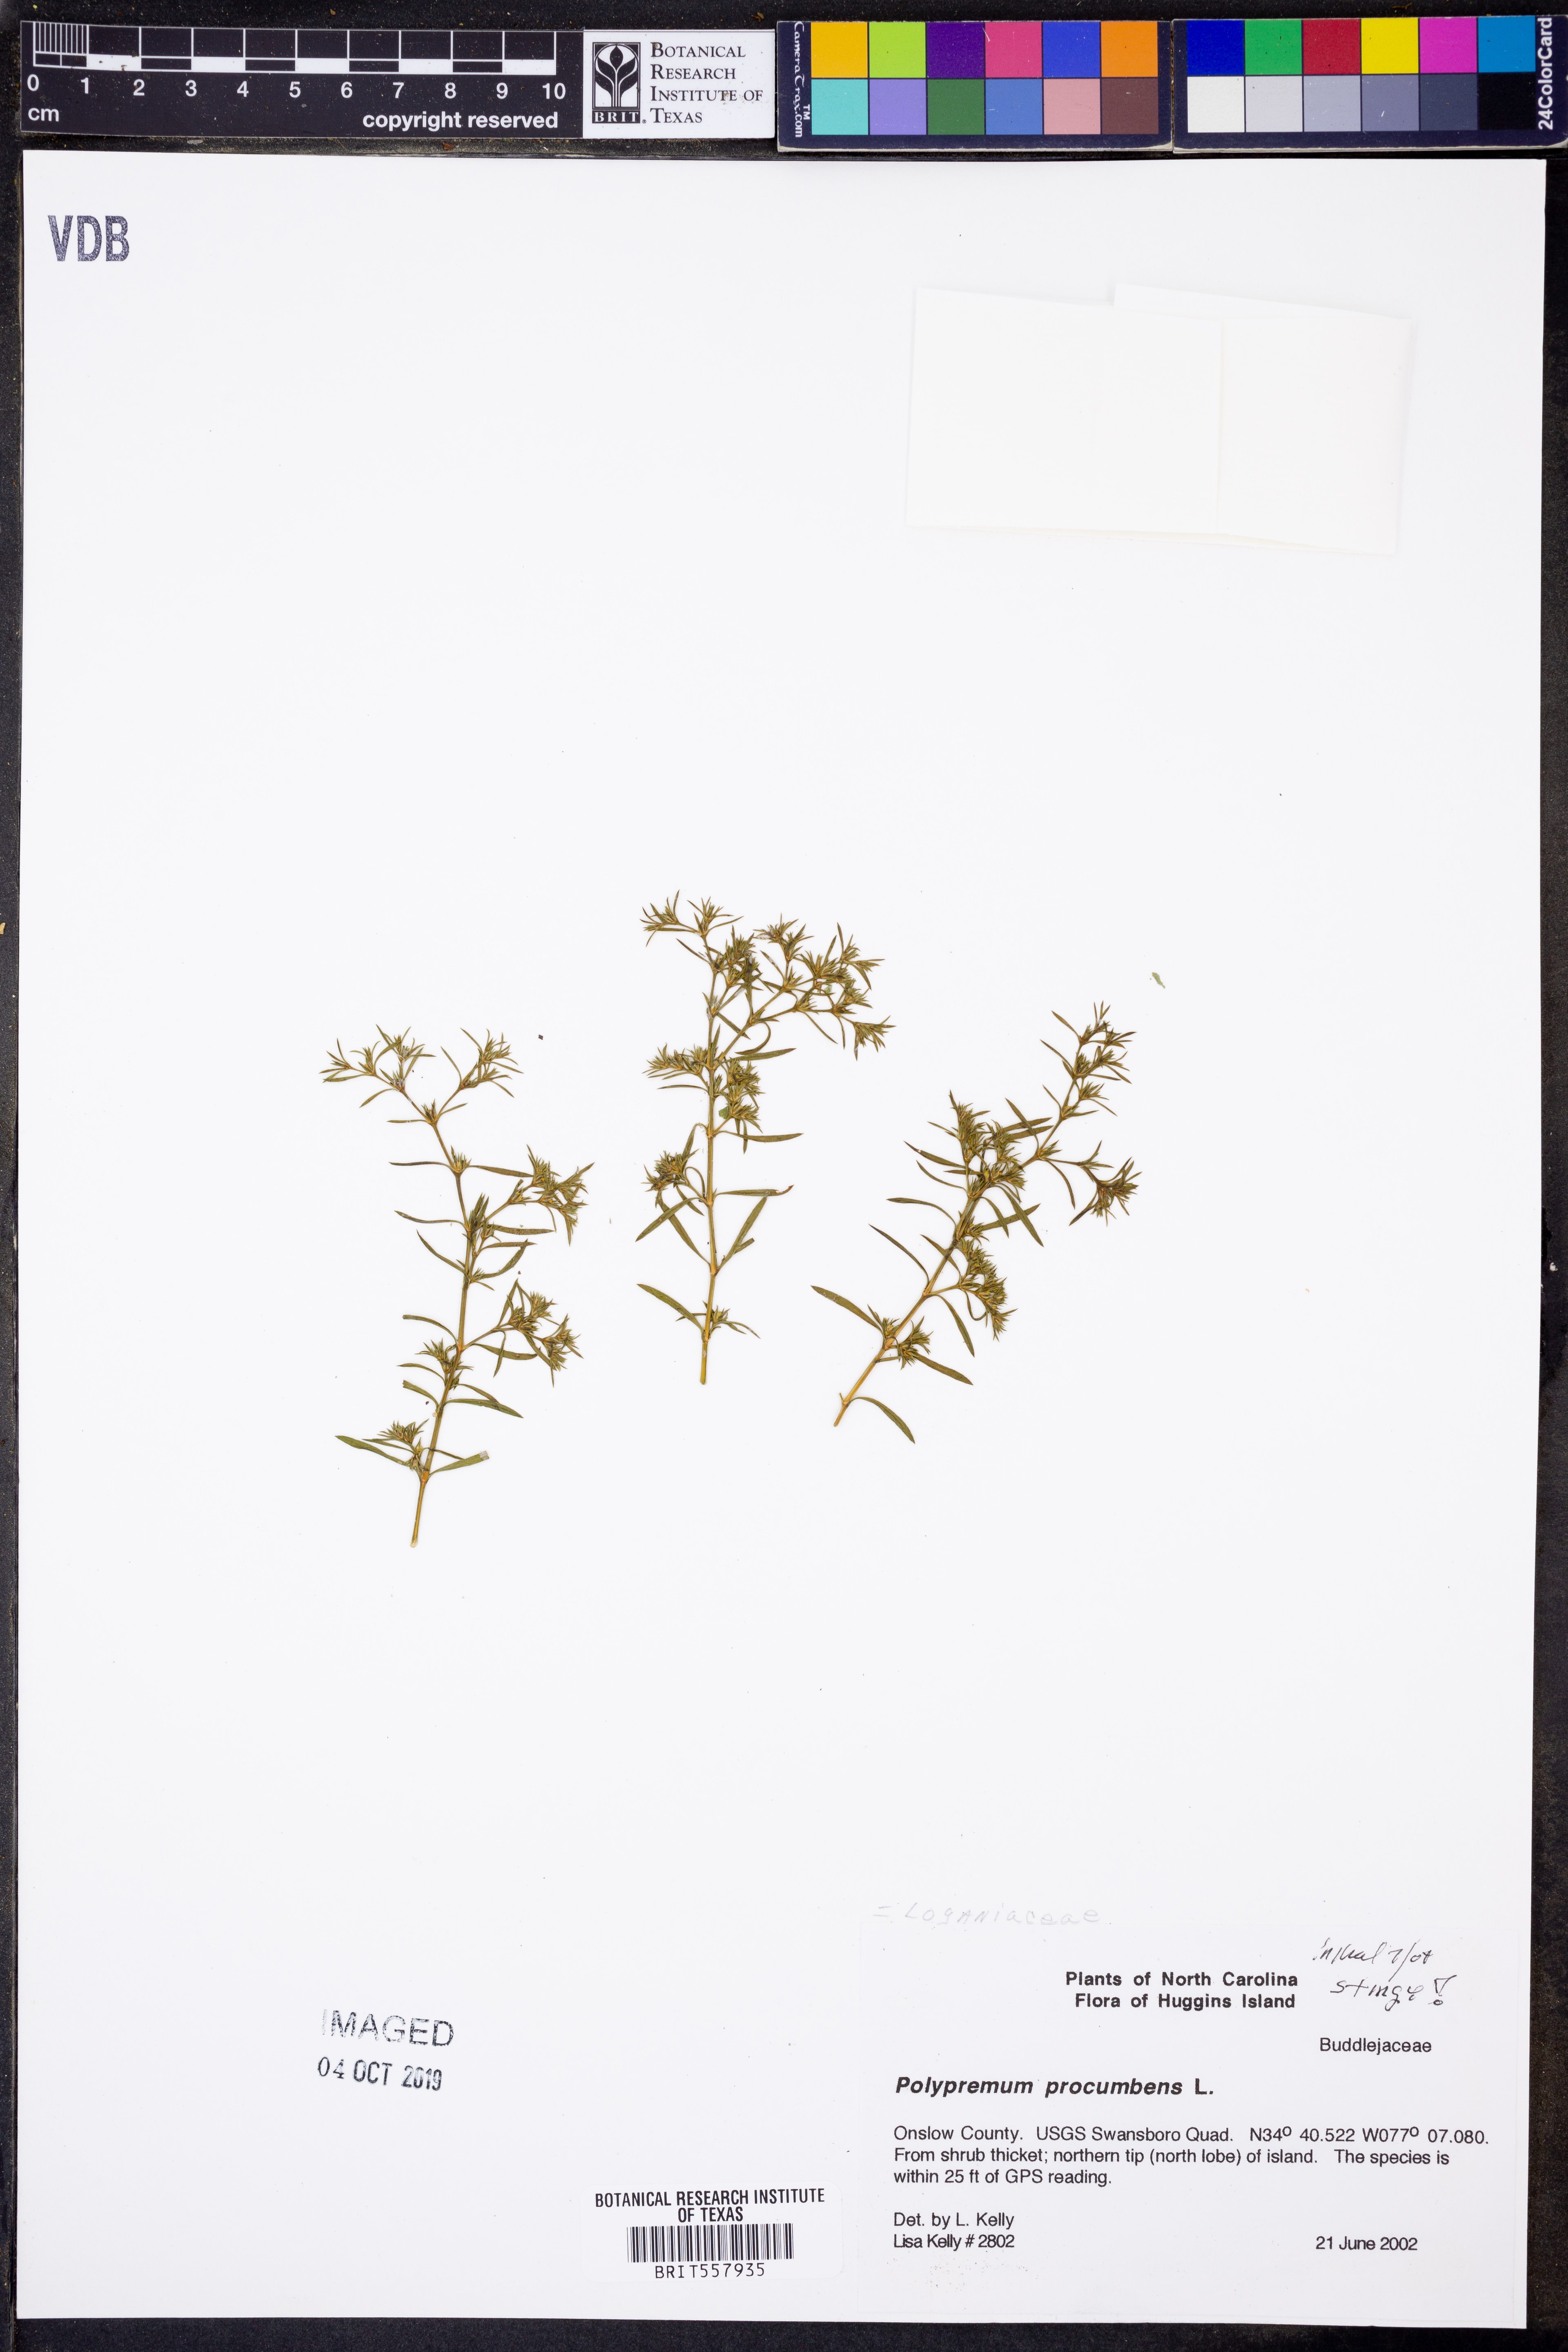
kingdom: Plantae
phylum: Tracheophyta
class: Magnoliopsida
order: Lamiales
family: Tetrachondraceae
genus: Polypremum
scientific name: Polypremum procumbens
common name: Juniper-leaf
